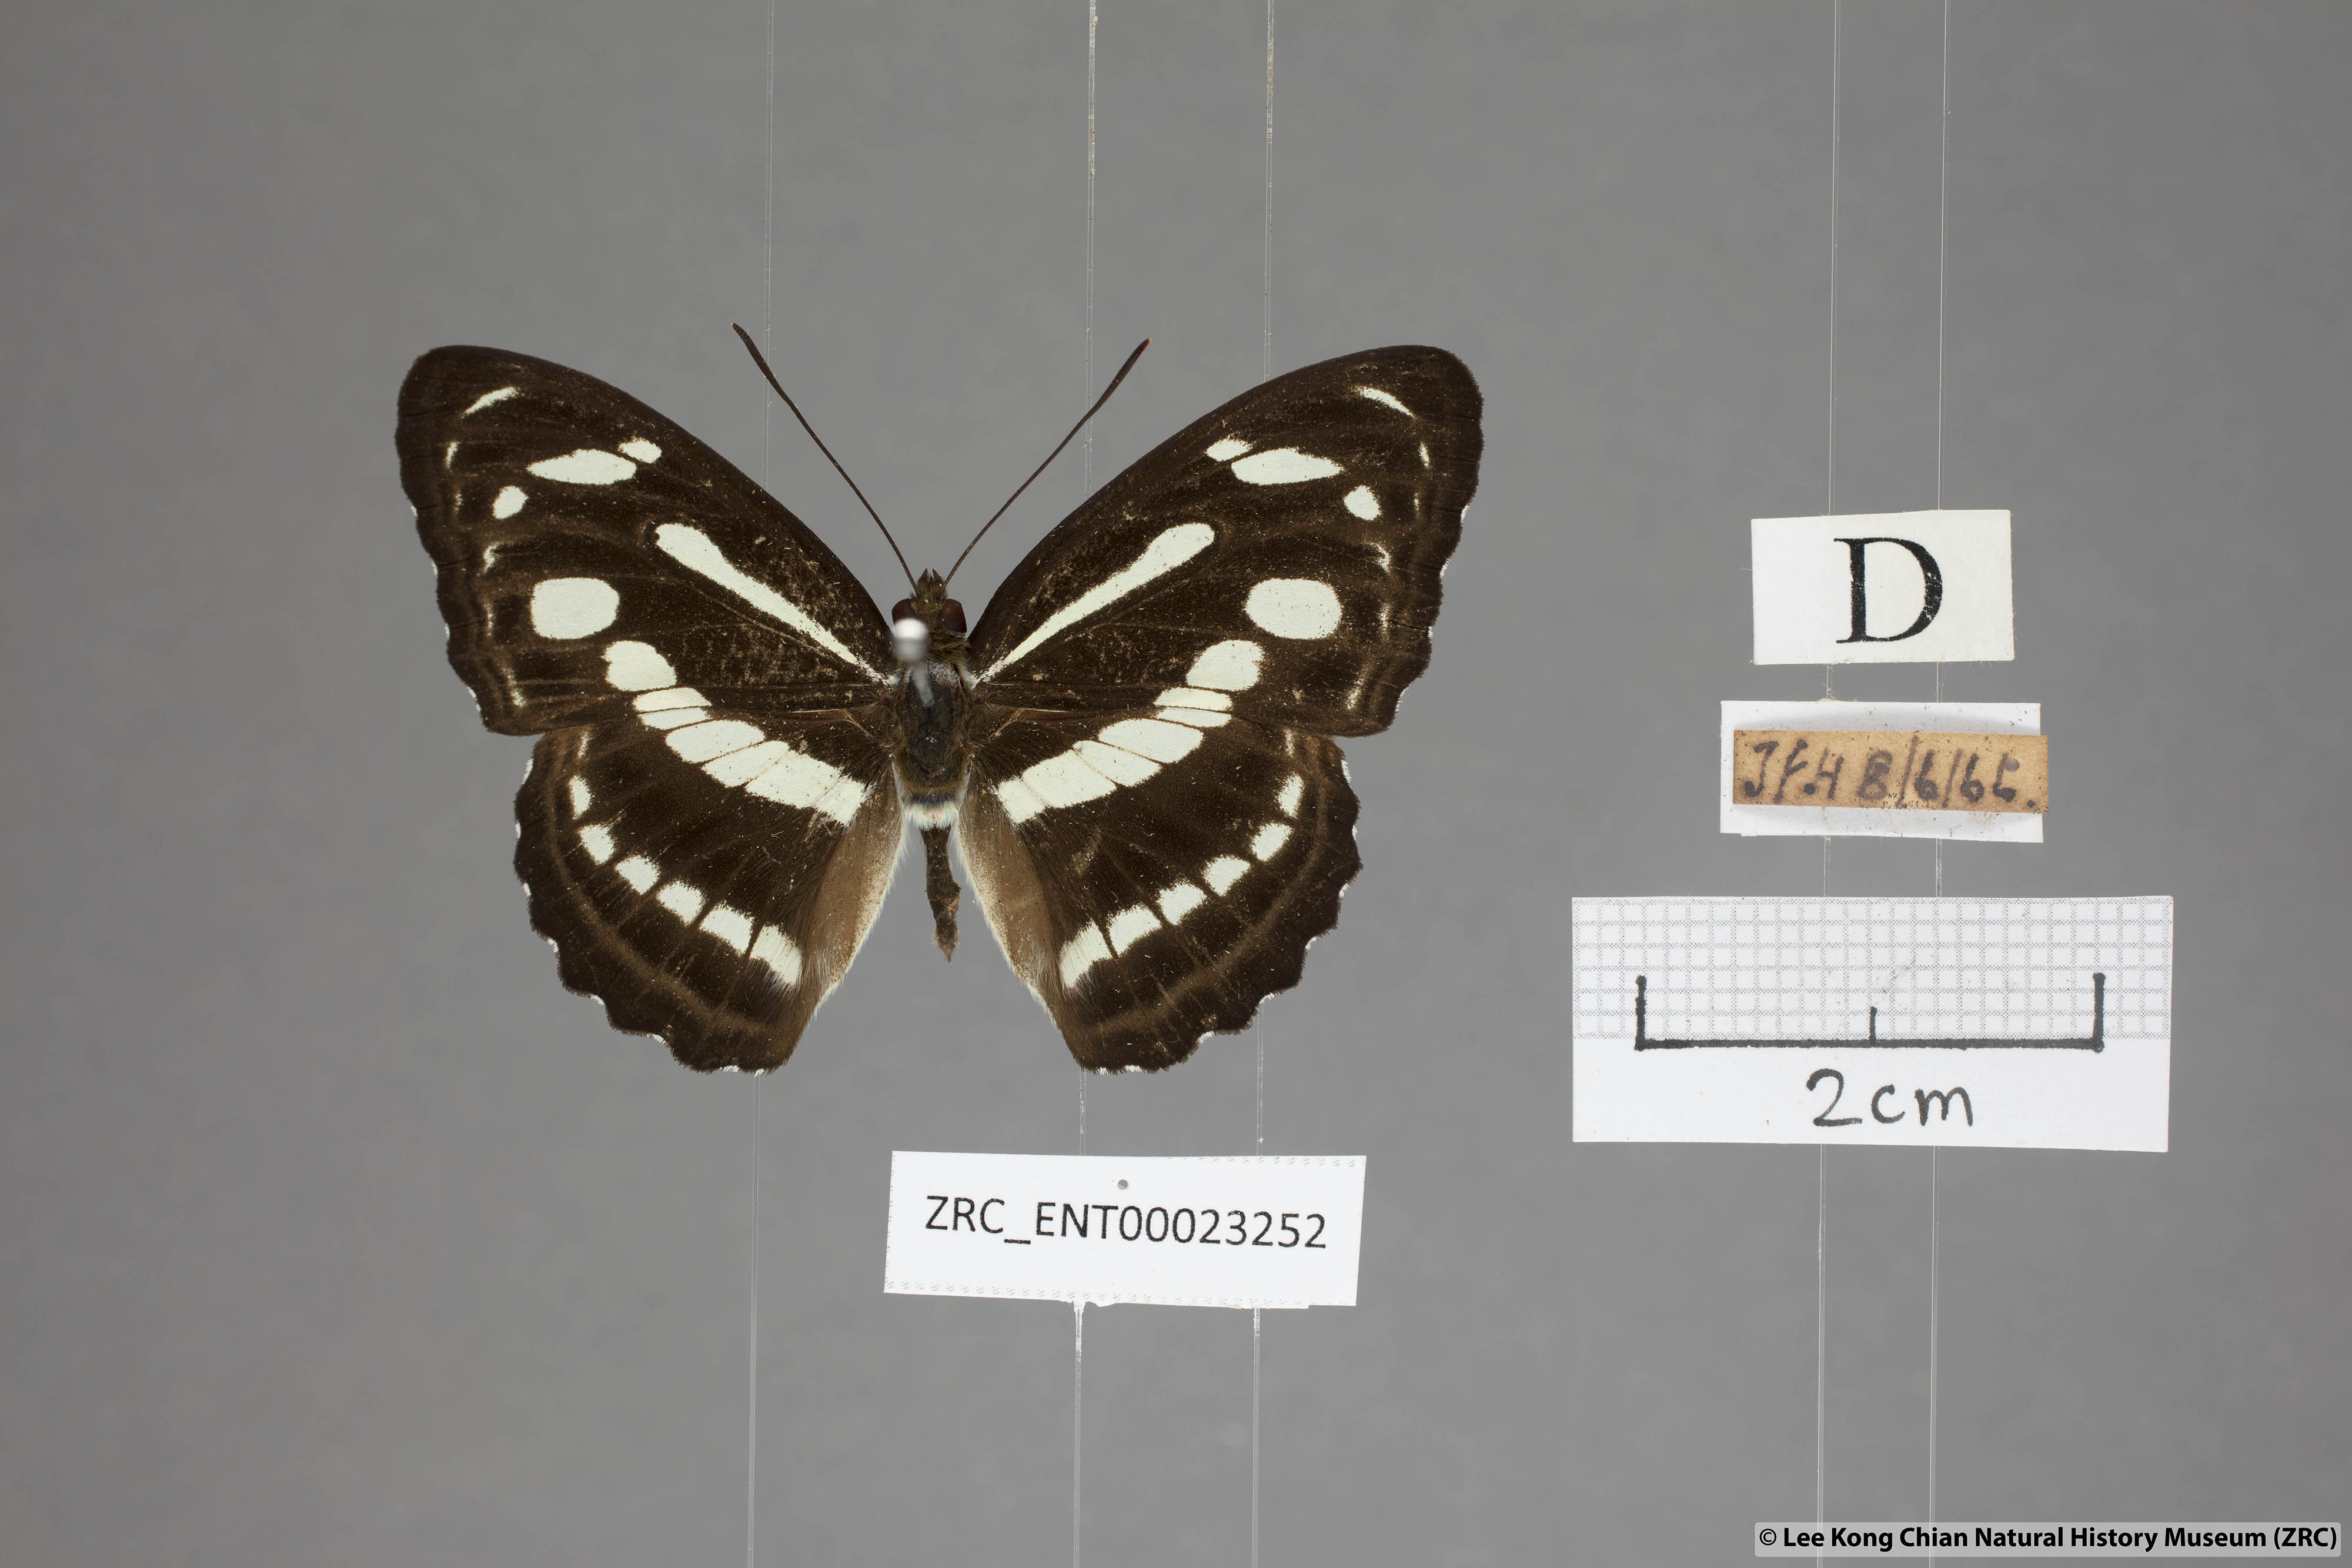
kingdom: Animalia
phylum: Arthropoda
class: Insecta
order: Lepidoptera
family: Nymphalidae
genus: Parathyma
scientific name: Parathyma pravara
